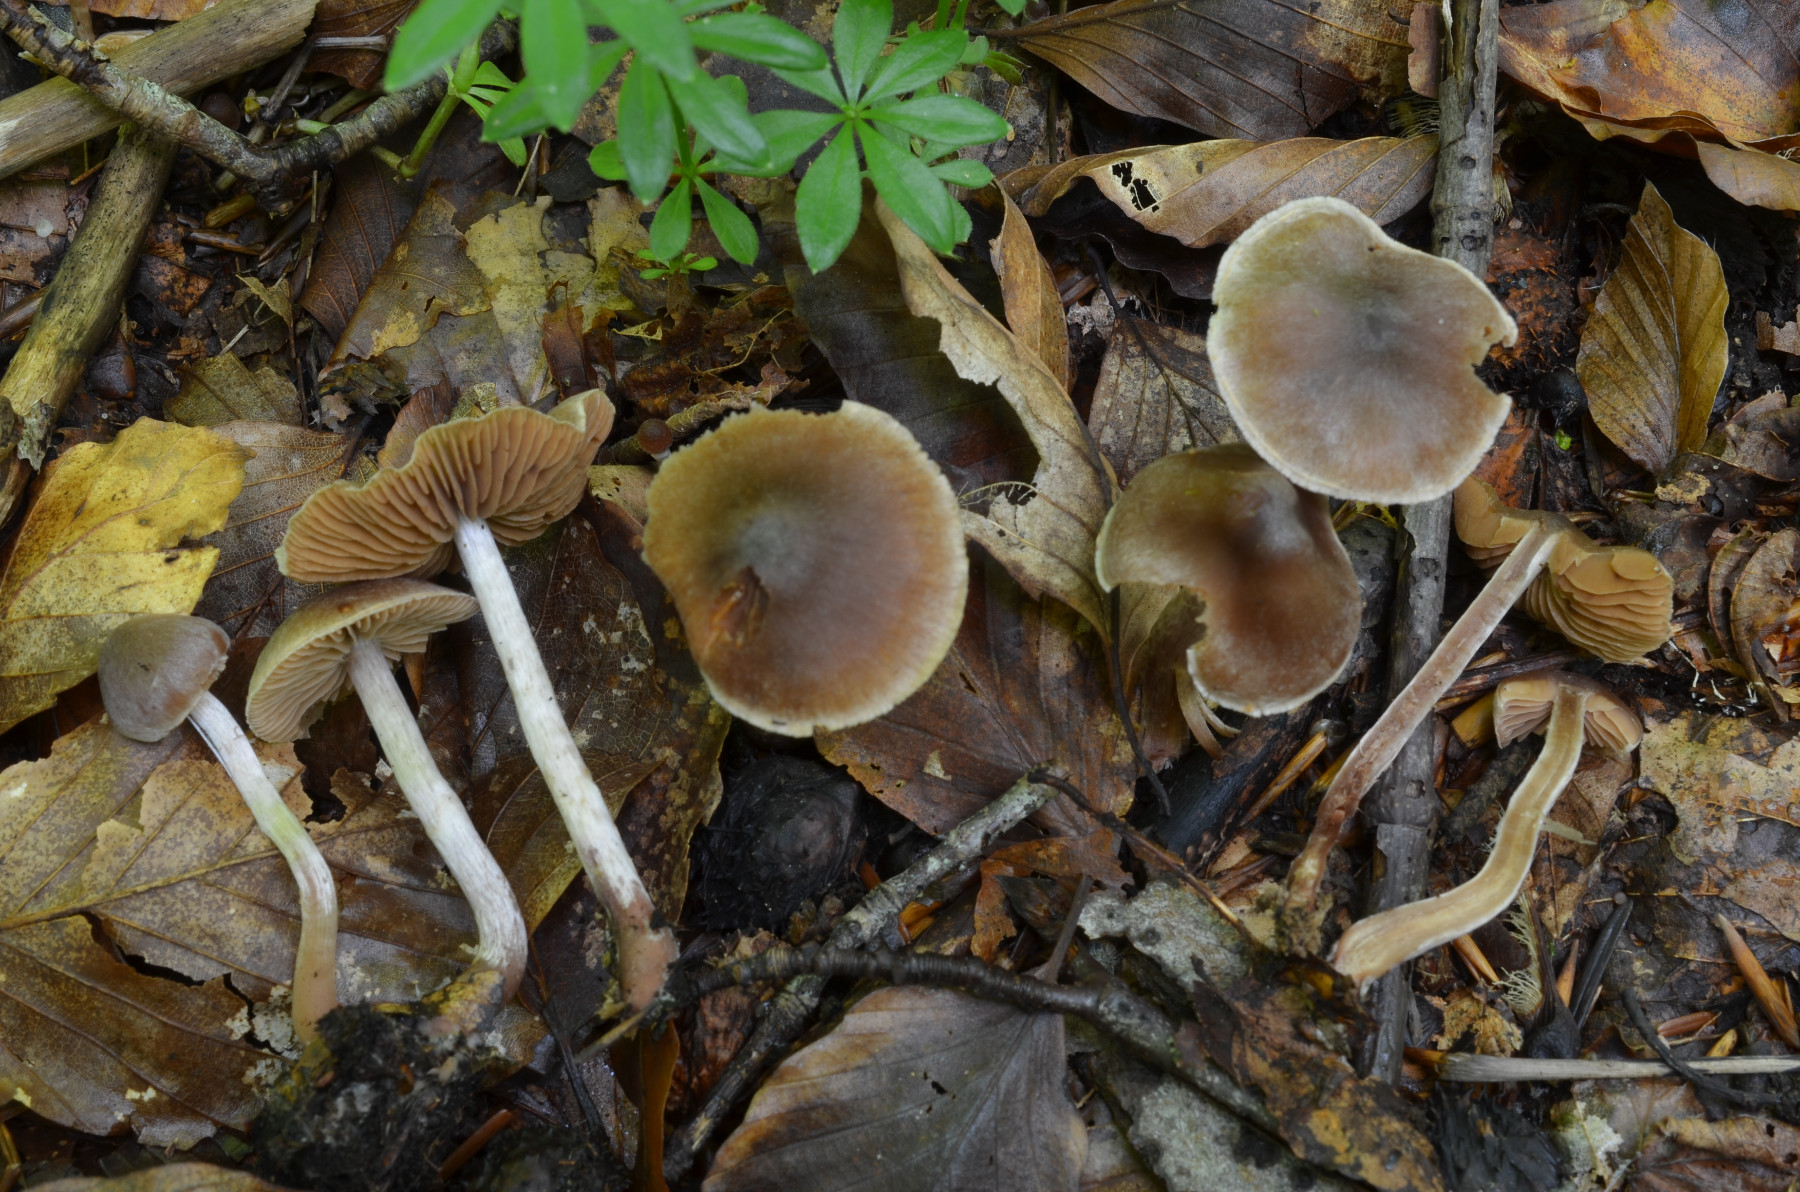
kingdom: Fungi
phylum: Basidiomycota
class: Agaricomycetes
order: Agaricales
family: Cortinariaceae
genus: Cortinarius
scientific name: Cortinarius decipientoides
